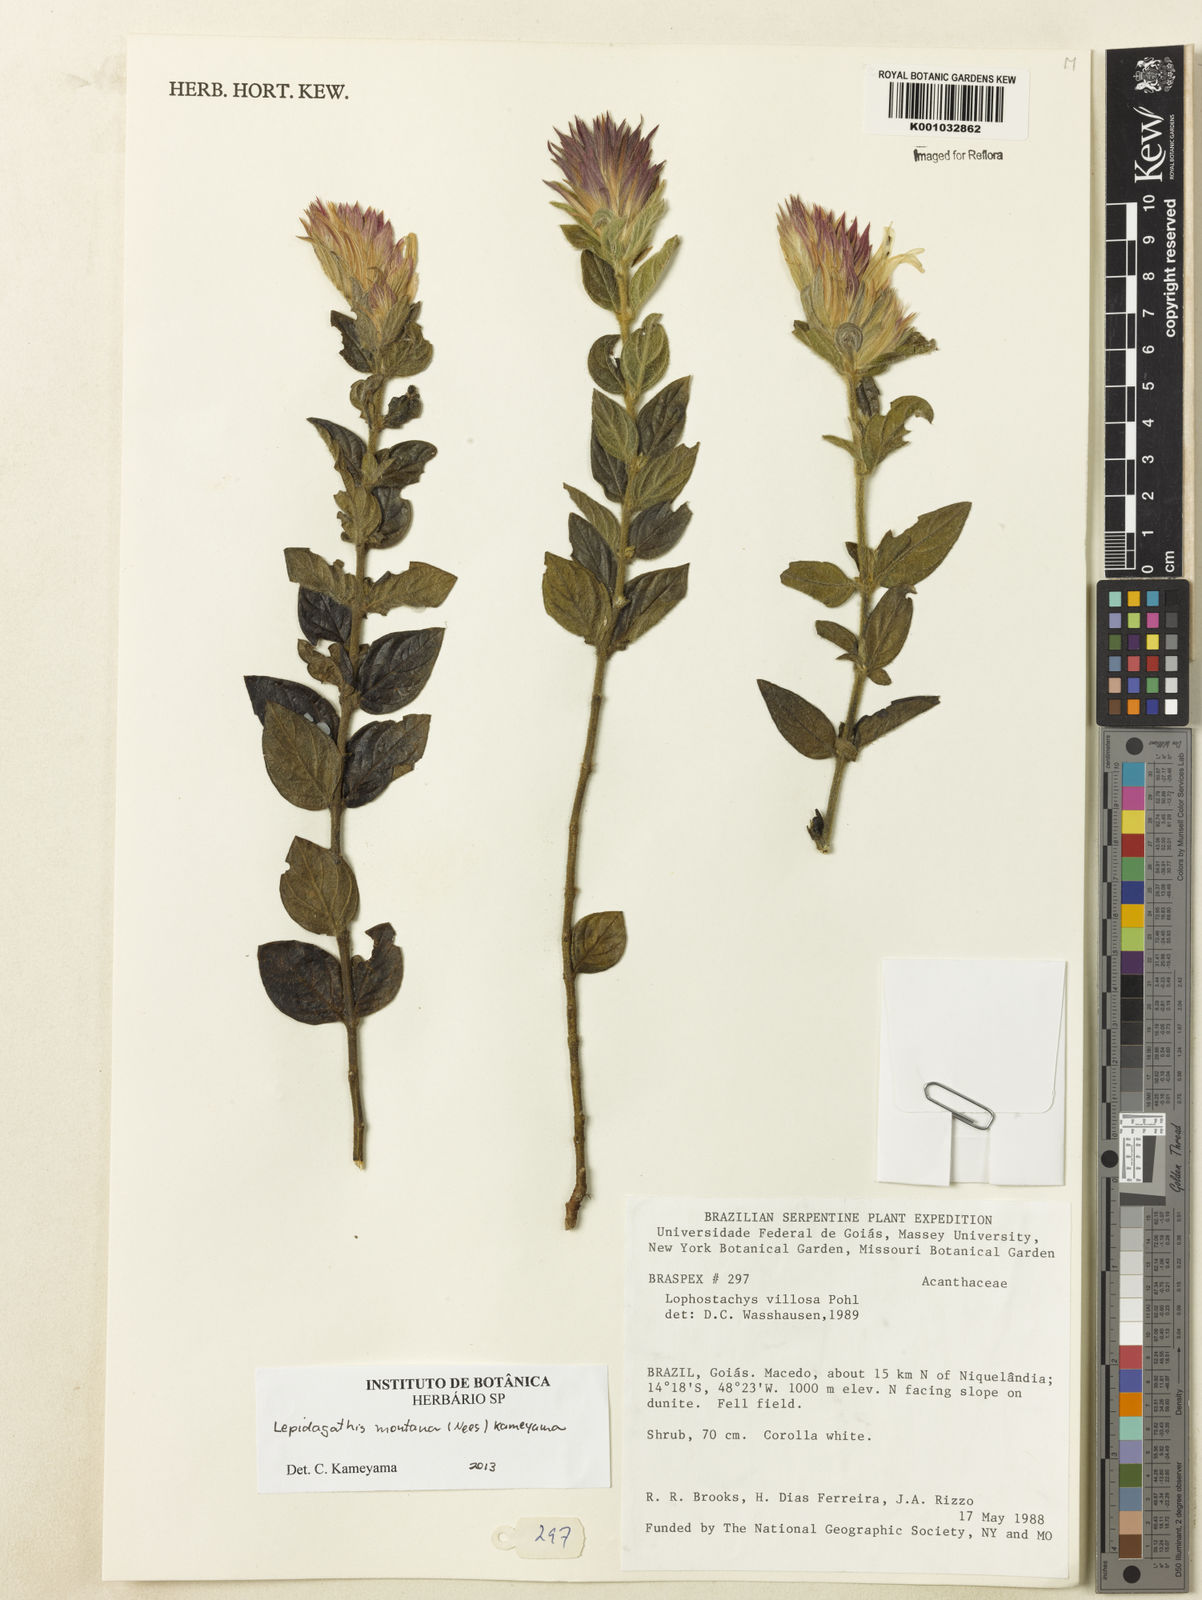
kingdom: Plantae
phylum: Tracheophyta
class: Magnoliopsida
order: Lamiales
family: Acanthaceae
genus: Lepidagathis
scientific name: Lepidagathis montana
